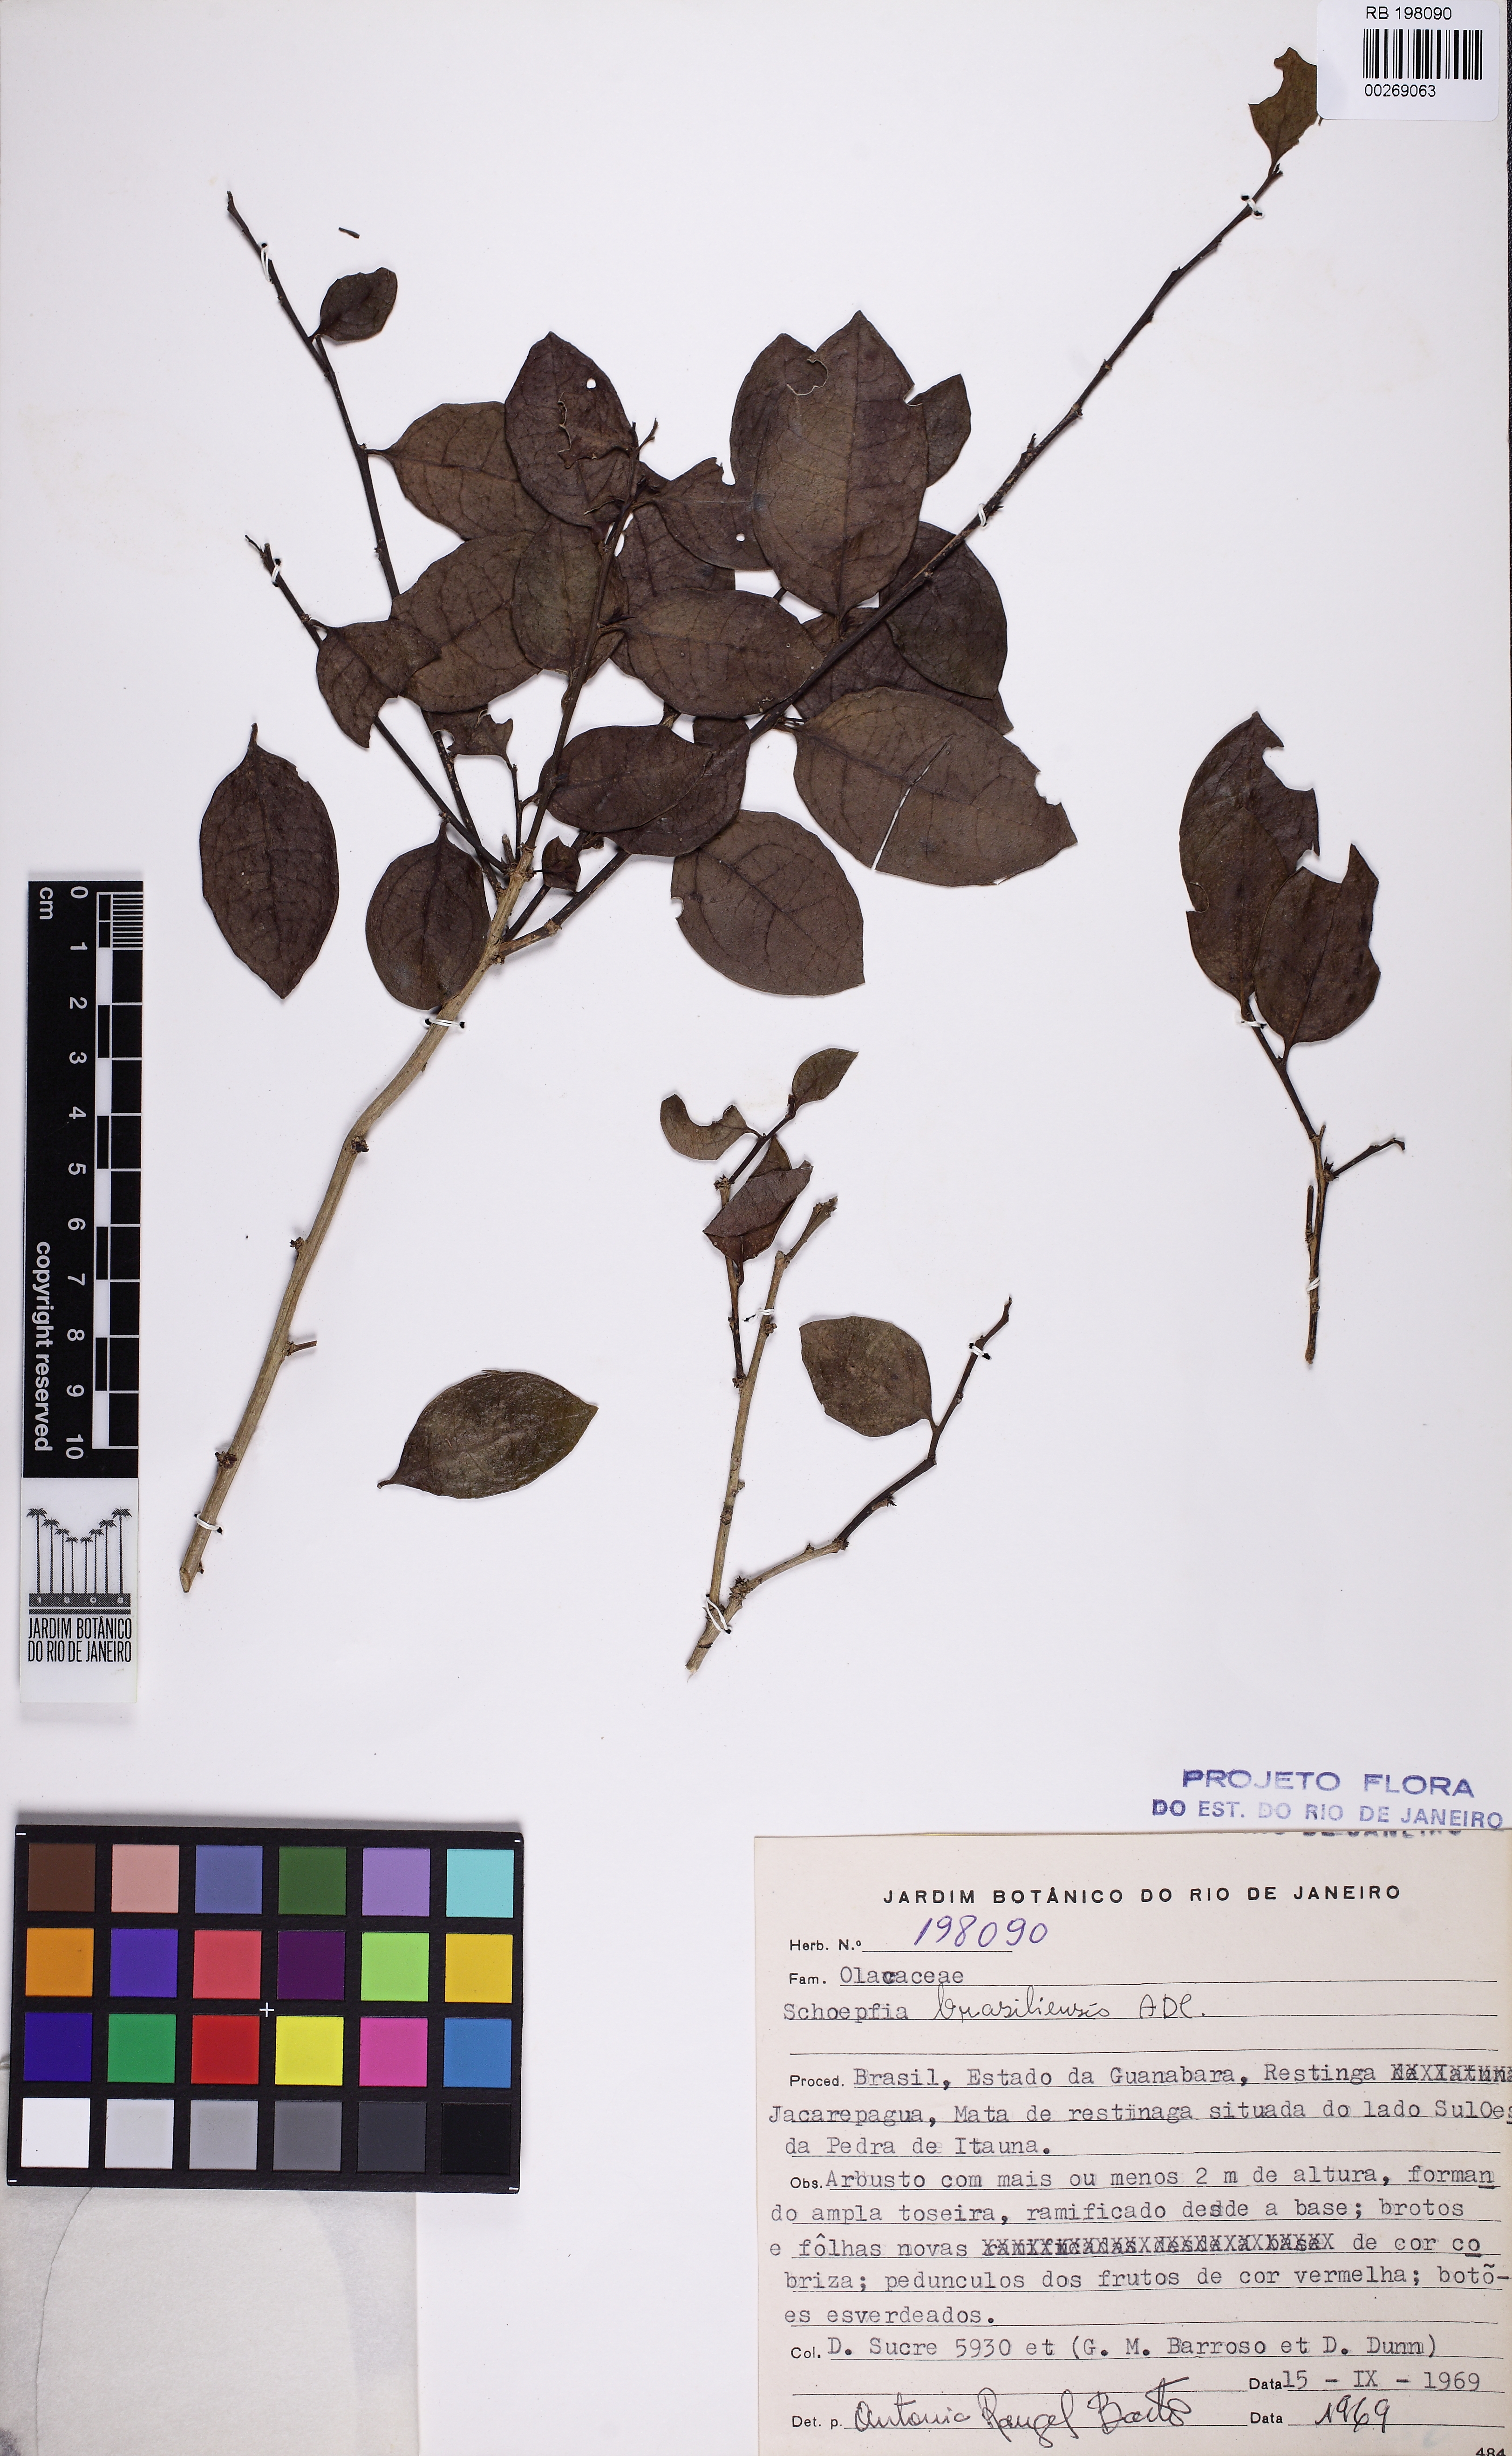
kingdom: Plantae
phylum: Tracheophyta
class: Magnoliopsida
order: Santalales
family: Schoepfiaceae
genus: Schoepfia
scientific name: Schoepfia brasiliensis
